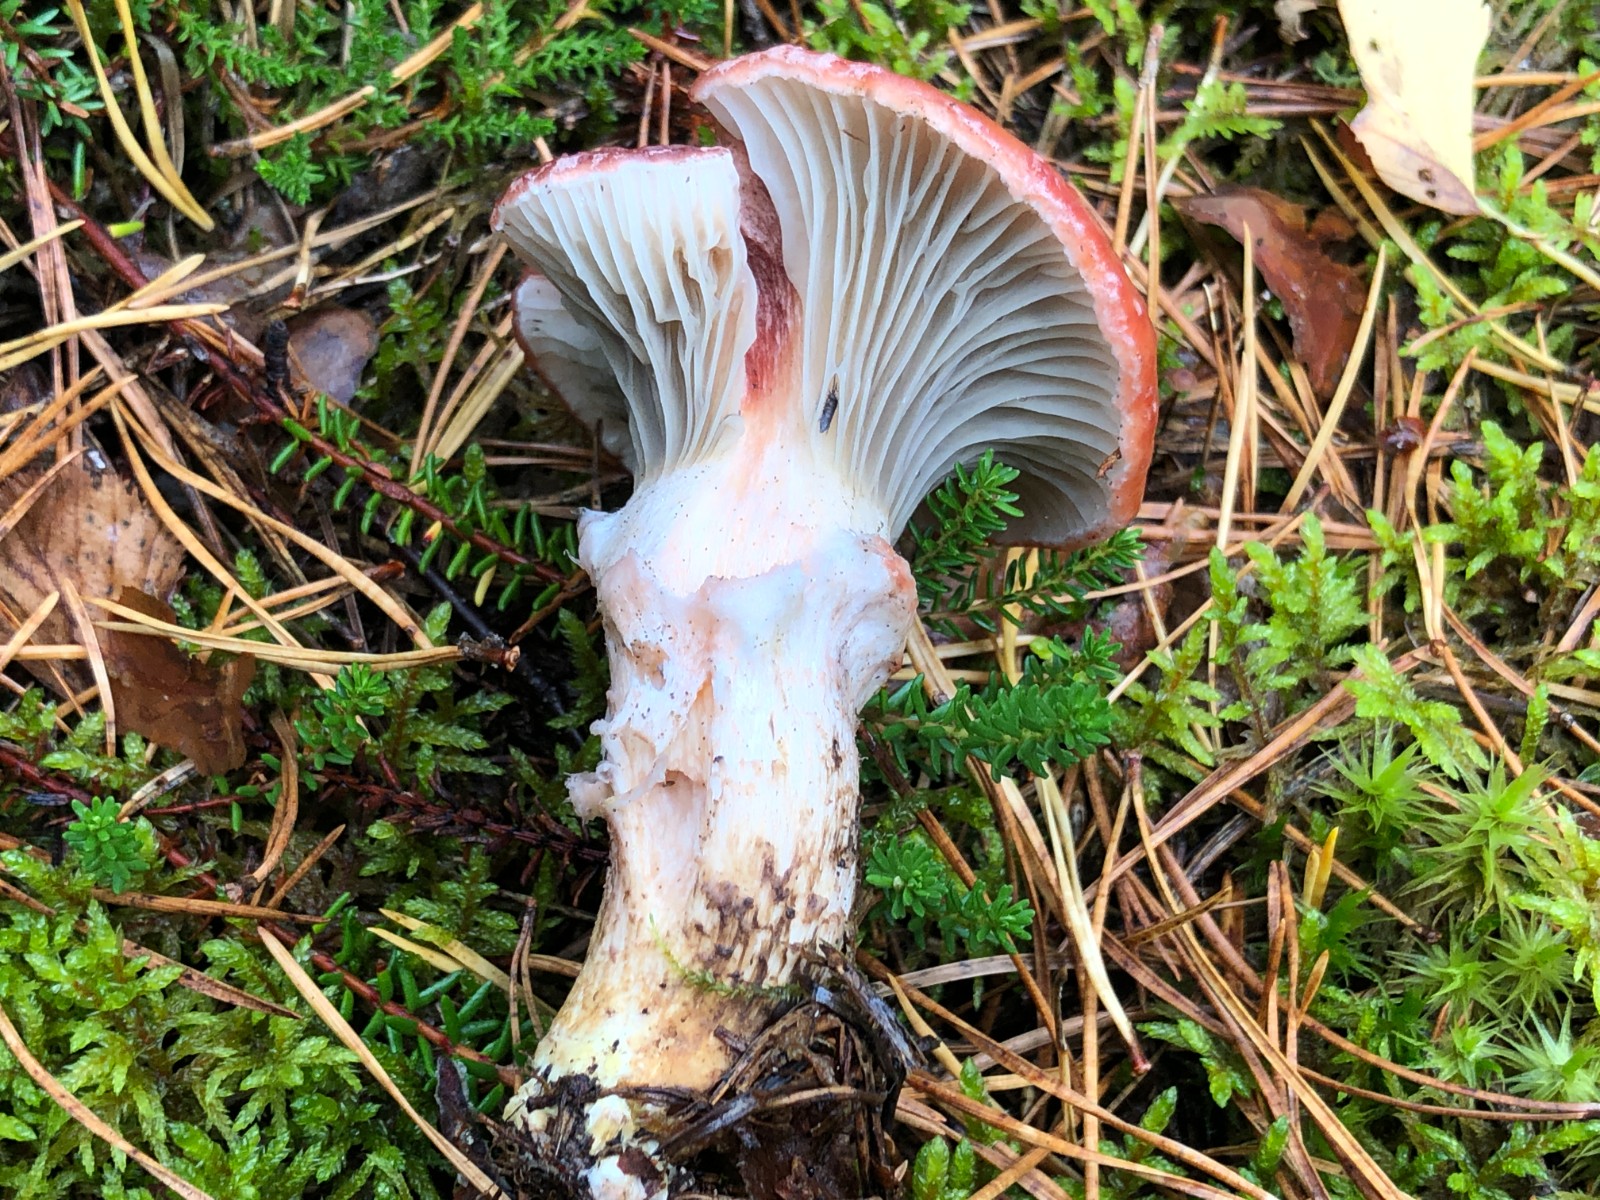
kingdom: Fungi
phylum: Basidiomycota
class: Agaricomycetes
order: Boletales
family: Gomphidiaceae
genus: Gomphidius
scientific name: Gomphidius roseus
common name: rosenrød slimslør
